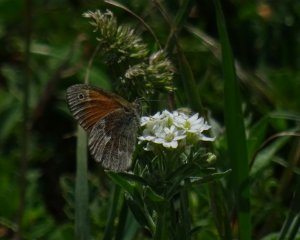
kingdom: Animalia
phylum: Arthropoda
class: Insecta
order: Lepidoptera
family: Nymphalidae
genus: Coenonympha
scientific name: Coenonympha tullia
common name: Large Heath
